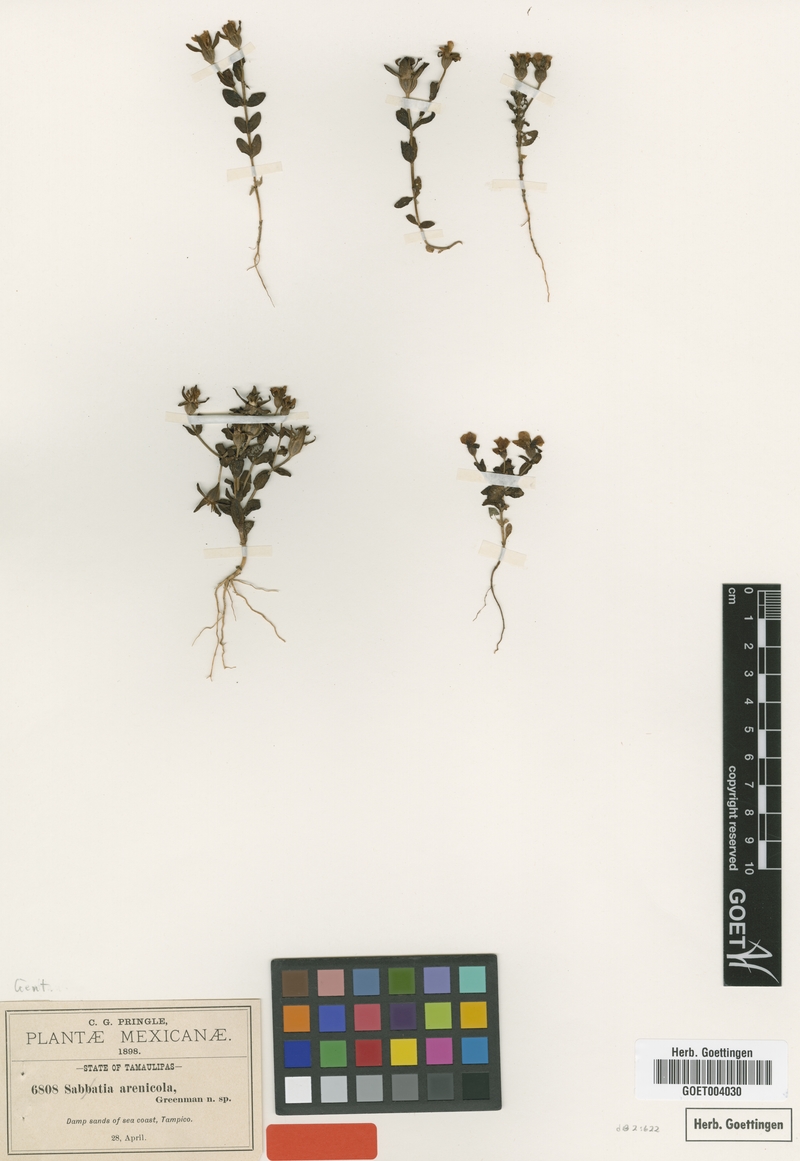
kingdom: Plantae
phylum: Tracheophyta
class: Magnoliopsida
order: Gentianales
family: Gentianaceae
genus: Sabatia
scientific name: Sabatia arenicola
